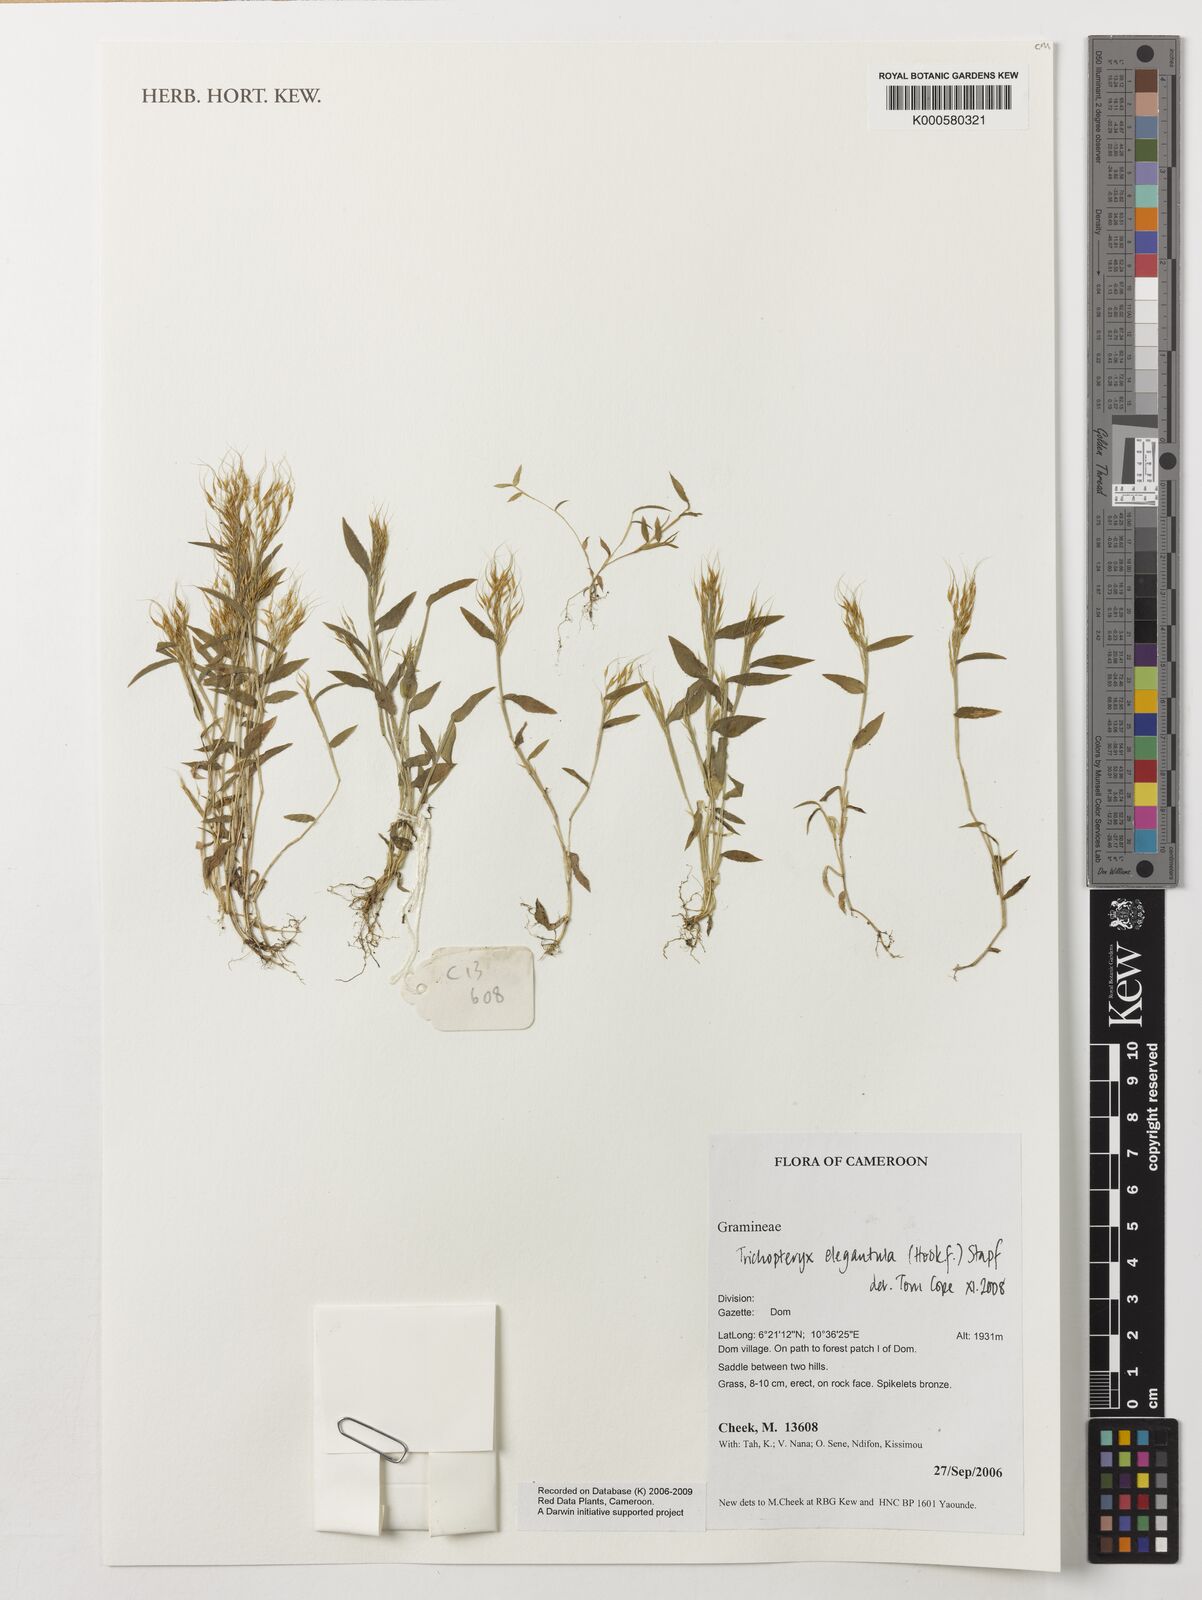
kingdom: Plantae
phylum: Tracheophyta
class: Liliopsida
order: Poales
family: Poaceae
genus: Trichopteryx
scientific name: Trichopteryx elegantula
